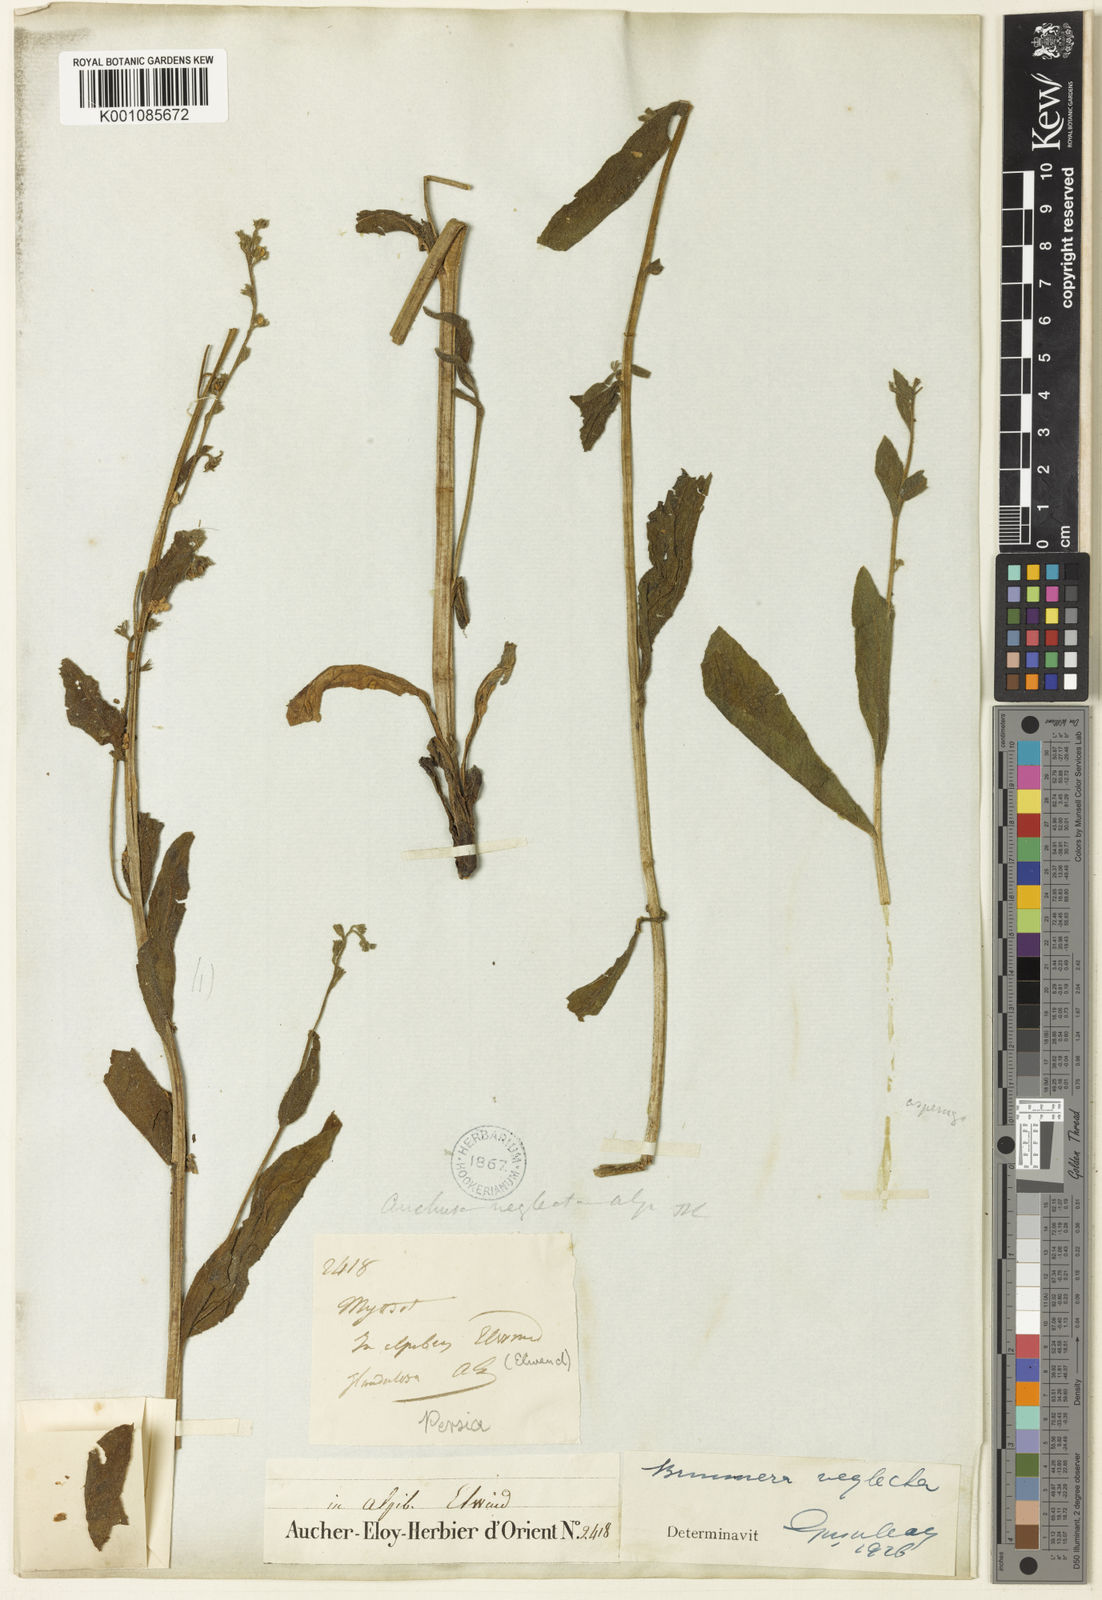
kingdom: Plantae
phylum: Tracheophyta
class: Magnoliopsida
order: Boraginales
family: Boraginaceae
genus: Brunnera
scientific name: Brunnera orientalis
